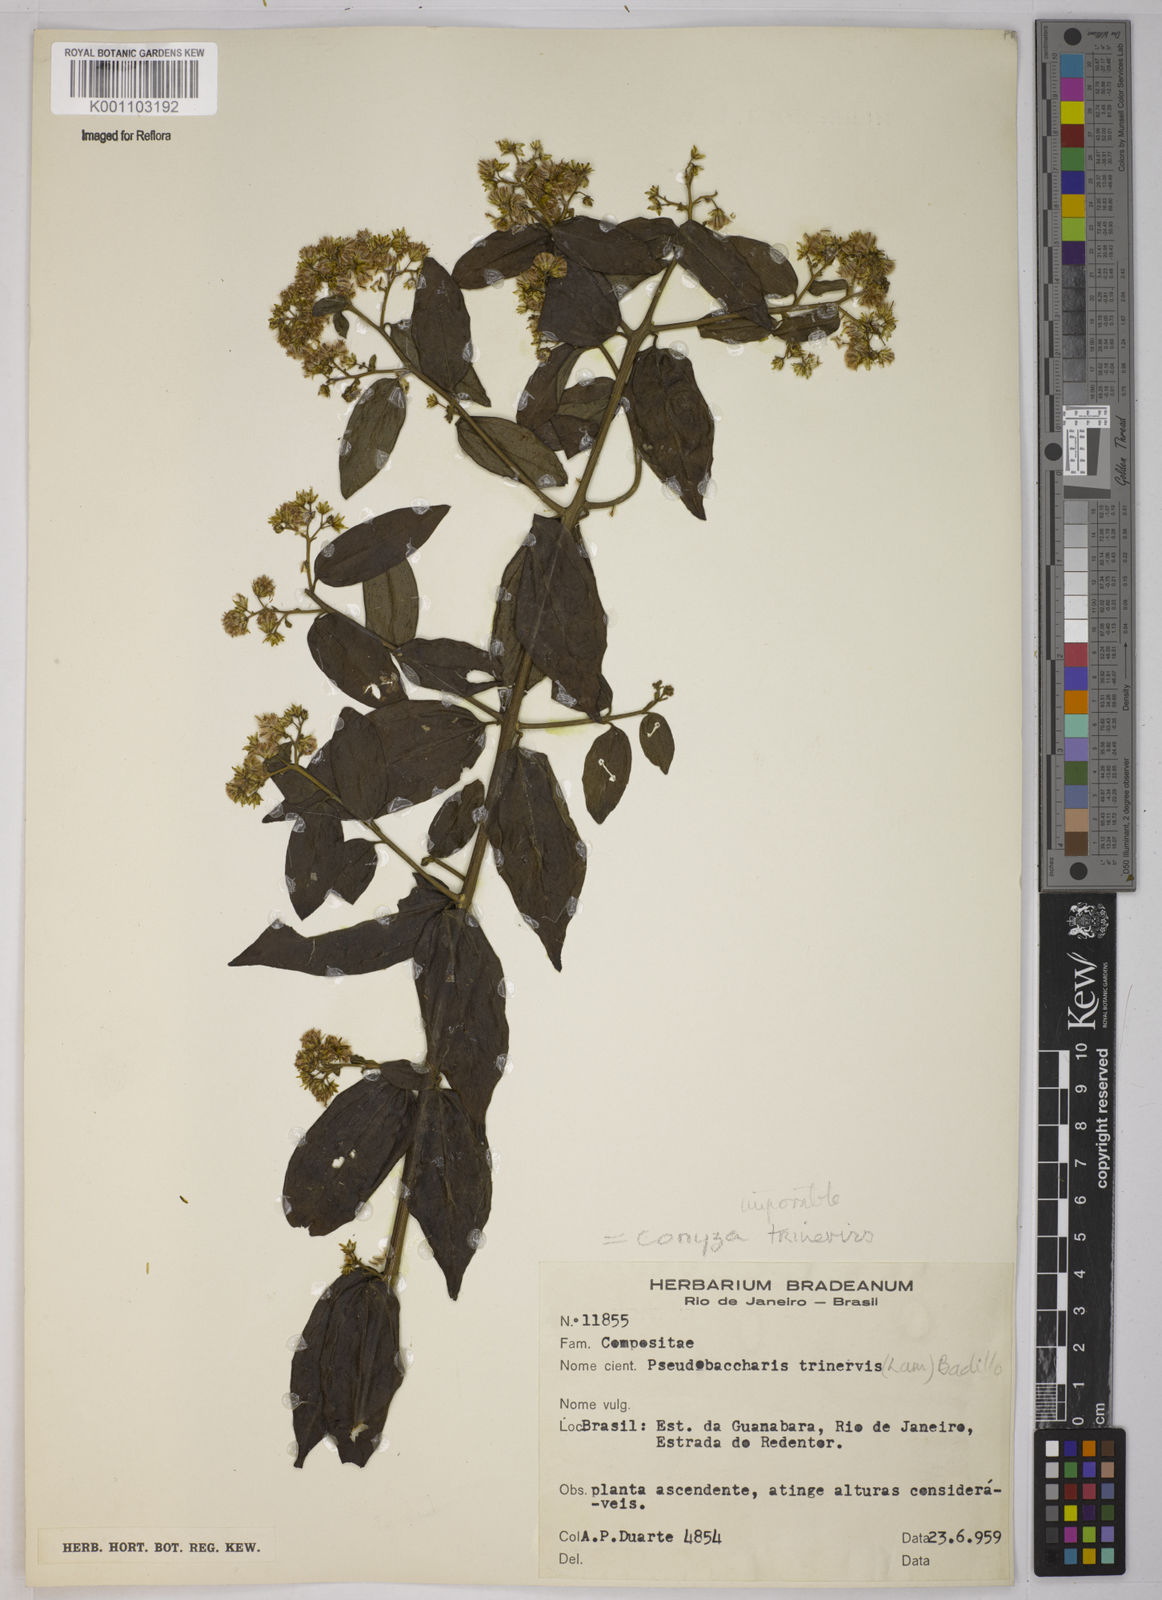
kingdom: Plantae
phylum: Tracheophyta
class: Magnoliopsida
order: Asterales
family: Asteraceae
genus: Baccharis
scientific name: Baccharis trinervis
